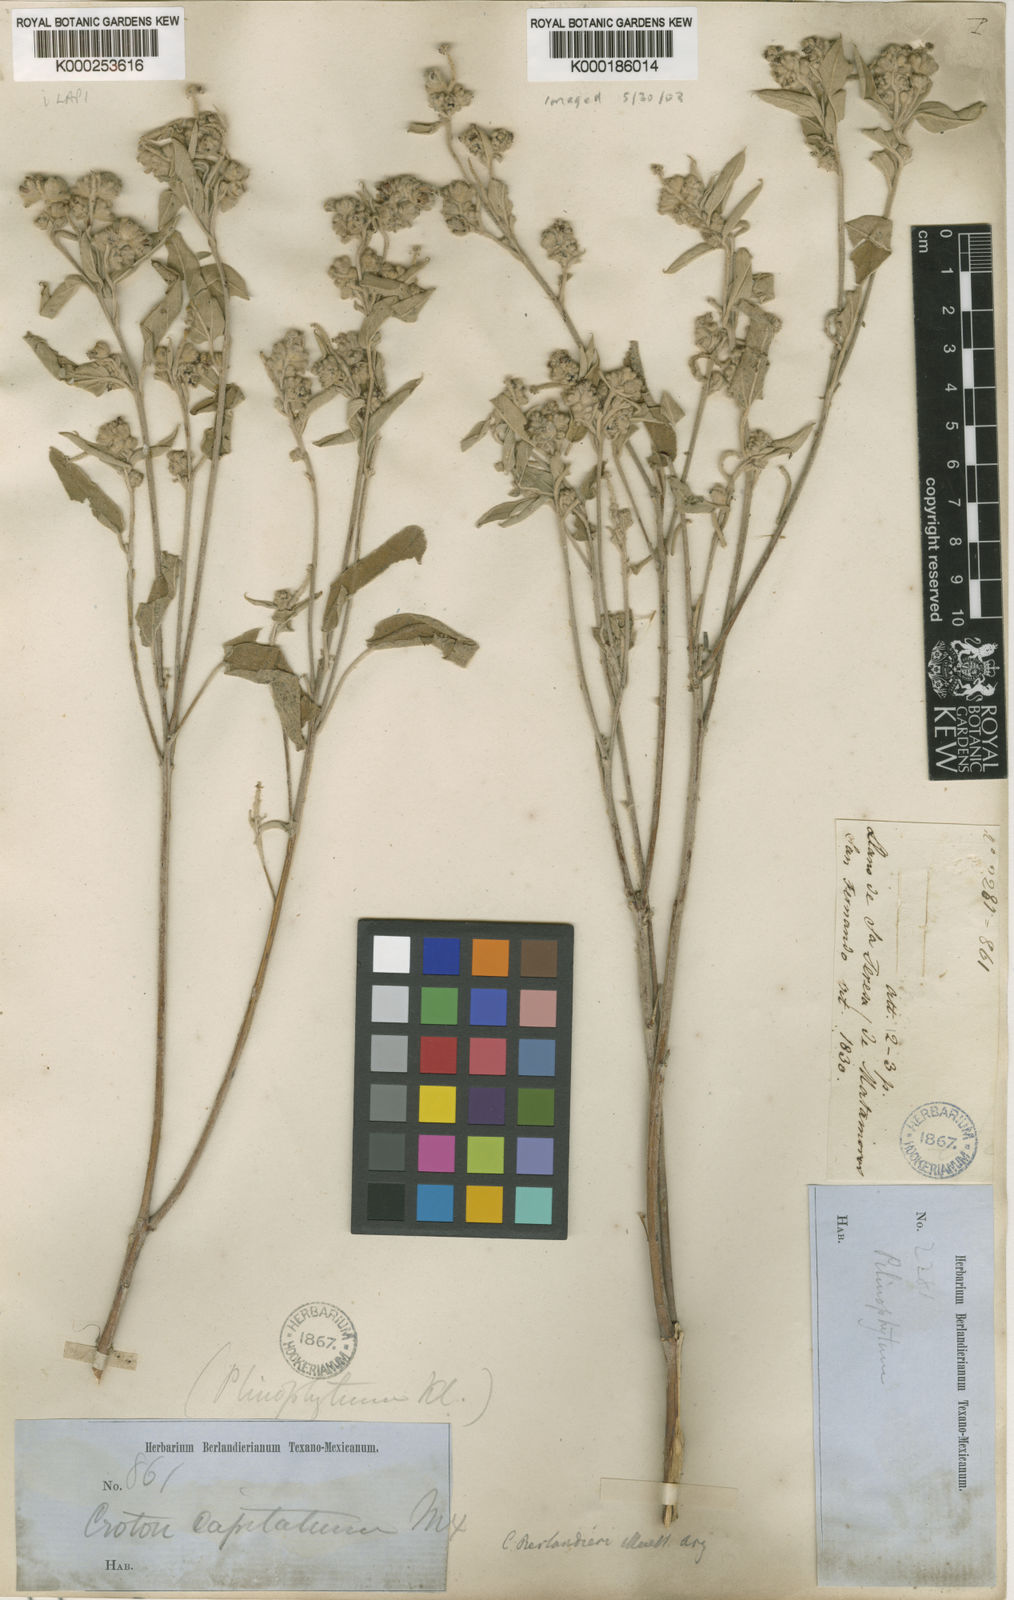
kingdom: Plantae
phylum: Tracheophyta
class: Magnoliopsida
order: Malpighiales
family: Euphorbiaceae
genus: Croton
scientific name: Croton
